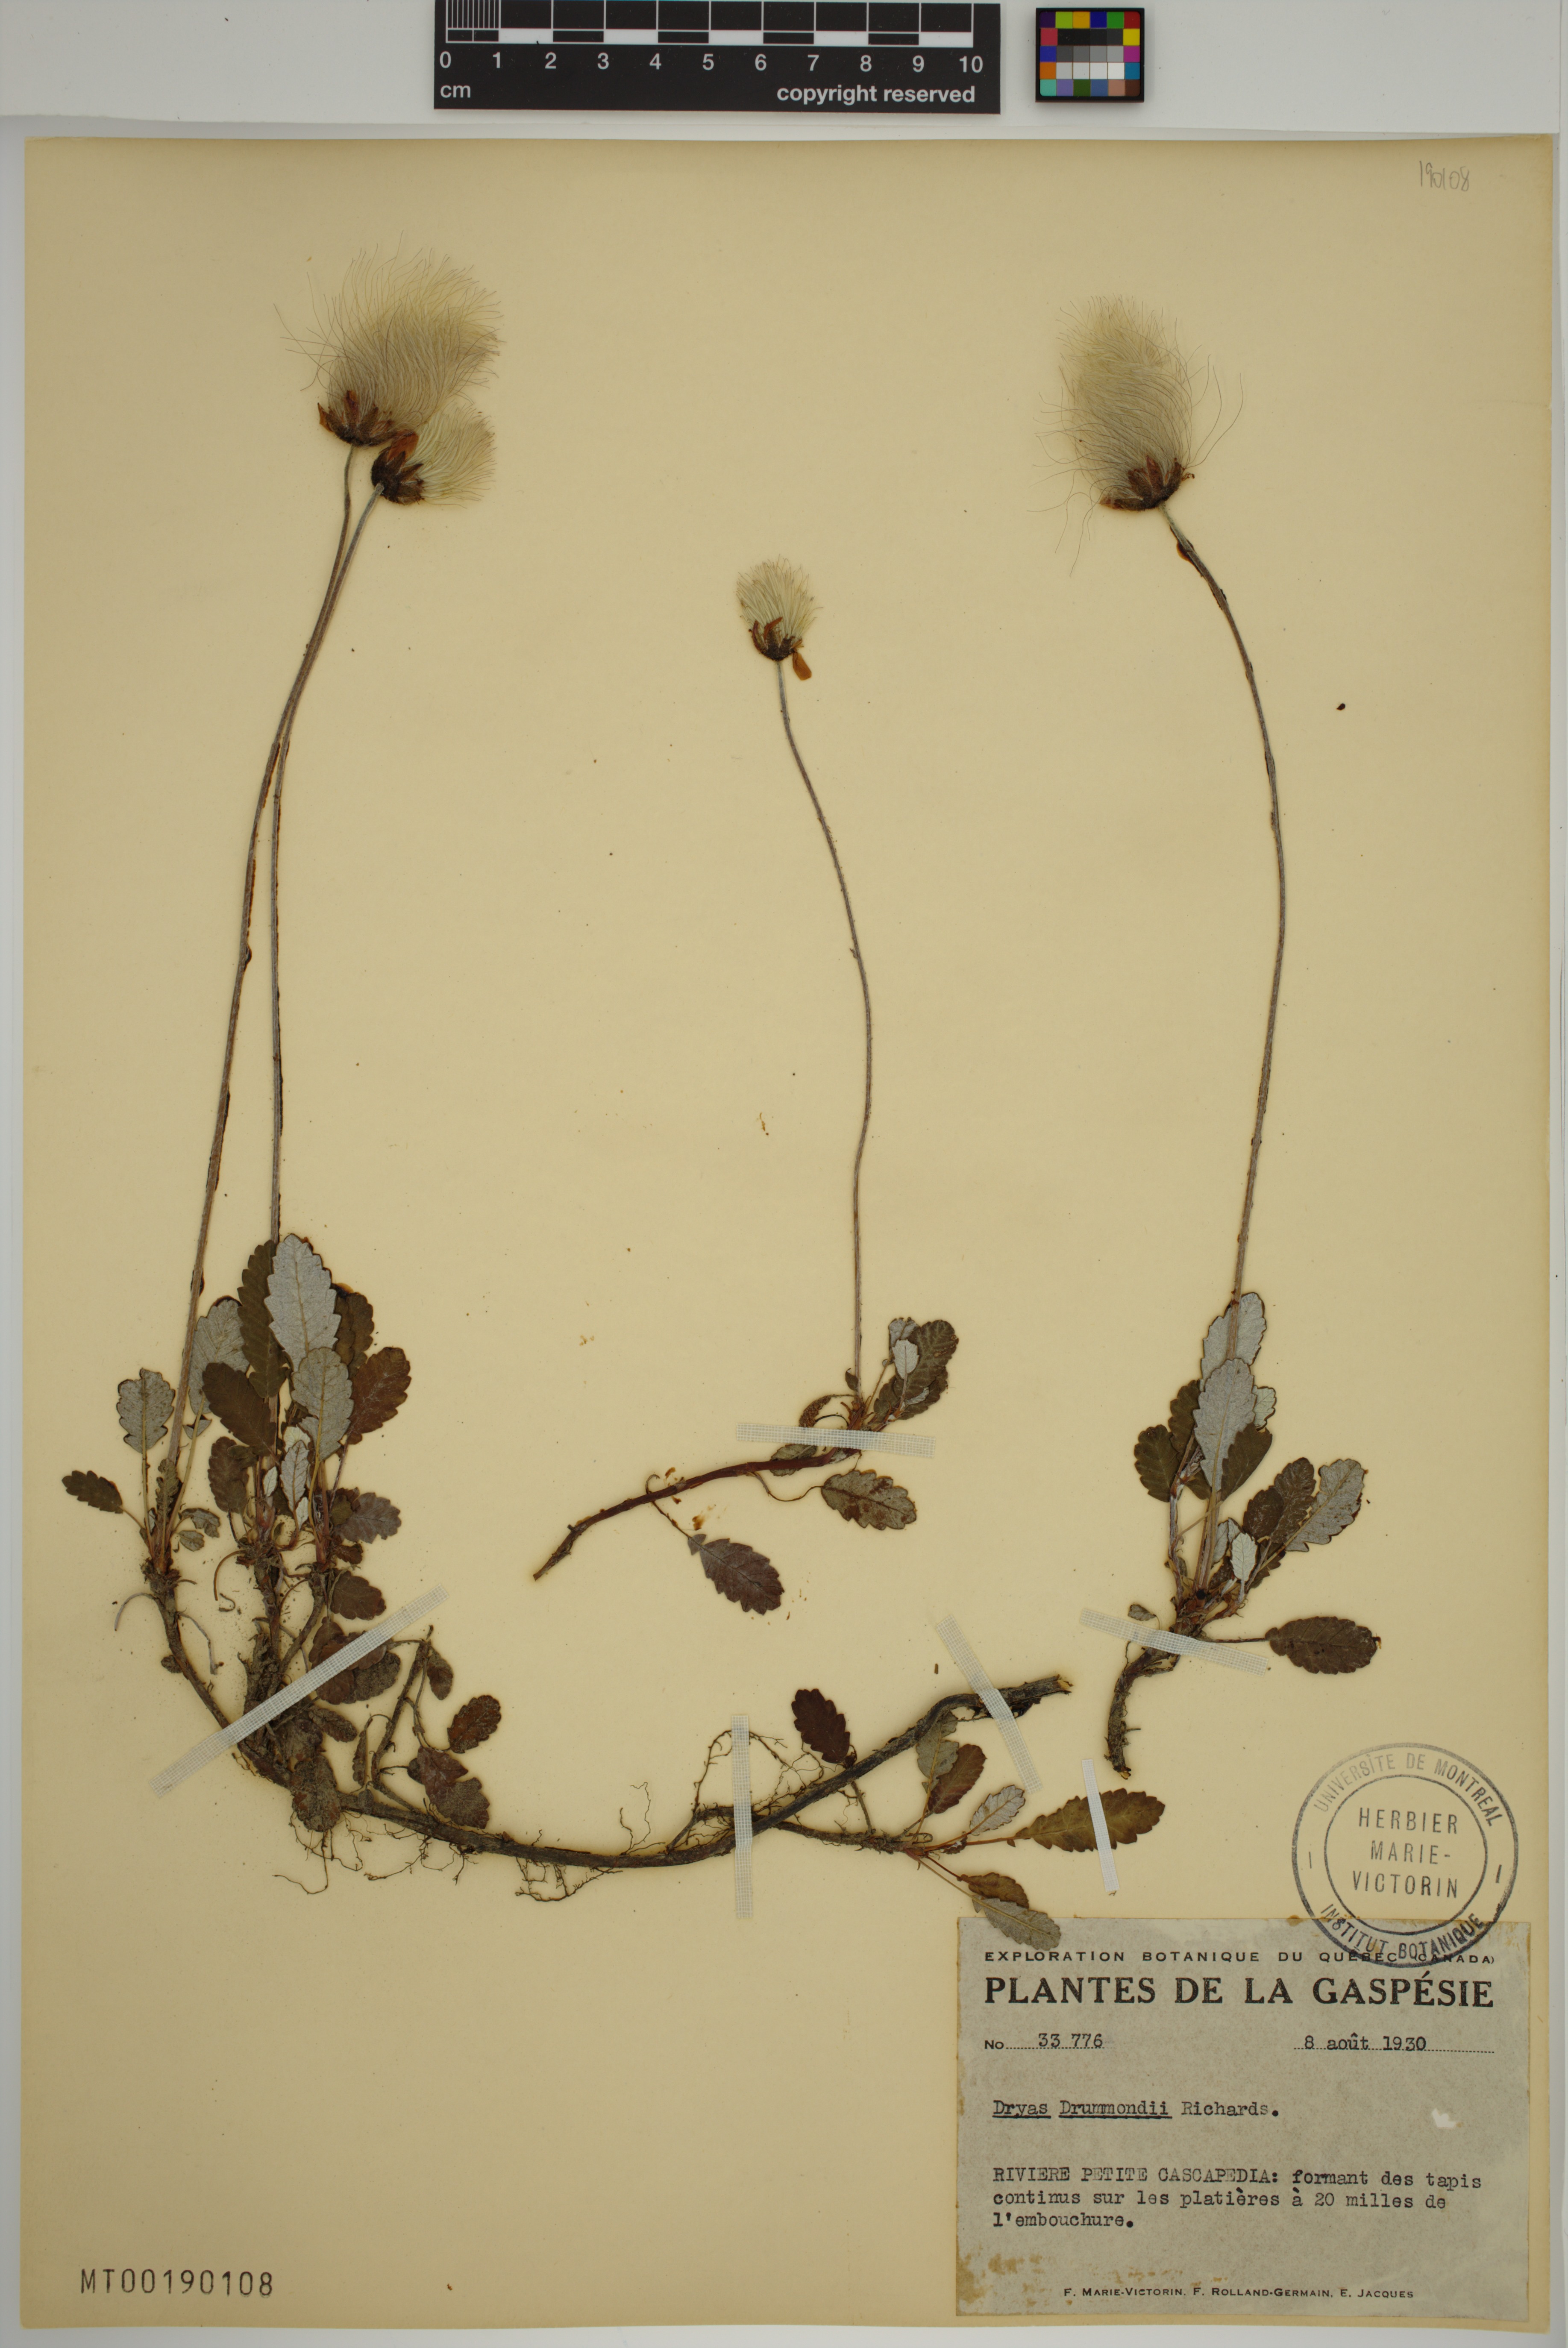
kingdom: Plantae
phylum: Tracheophyta
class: Magnoliopsida
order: Rosales
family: Rosaceae
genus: Dryas
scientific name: Dryas drummondii
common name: Drummond's dryad
